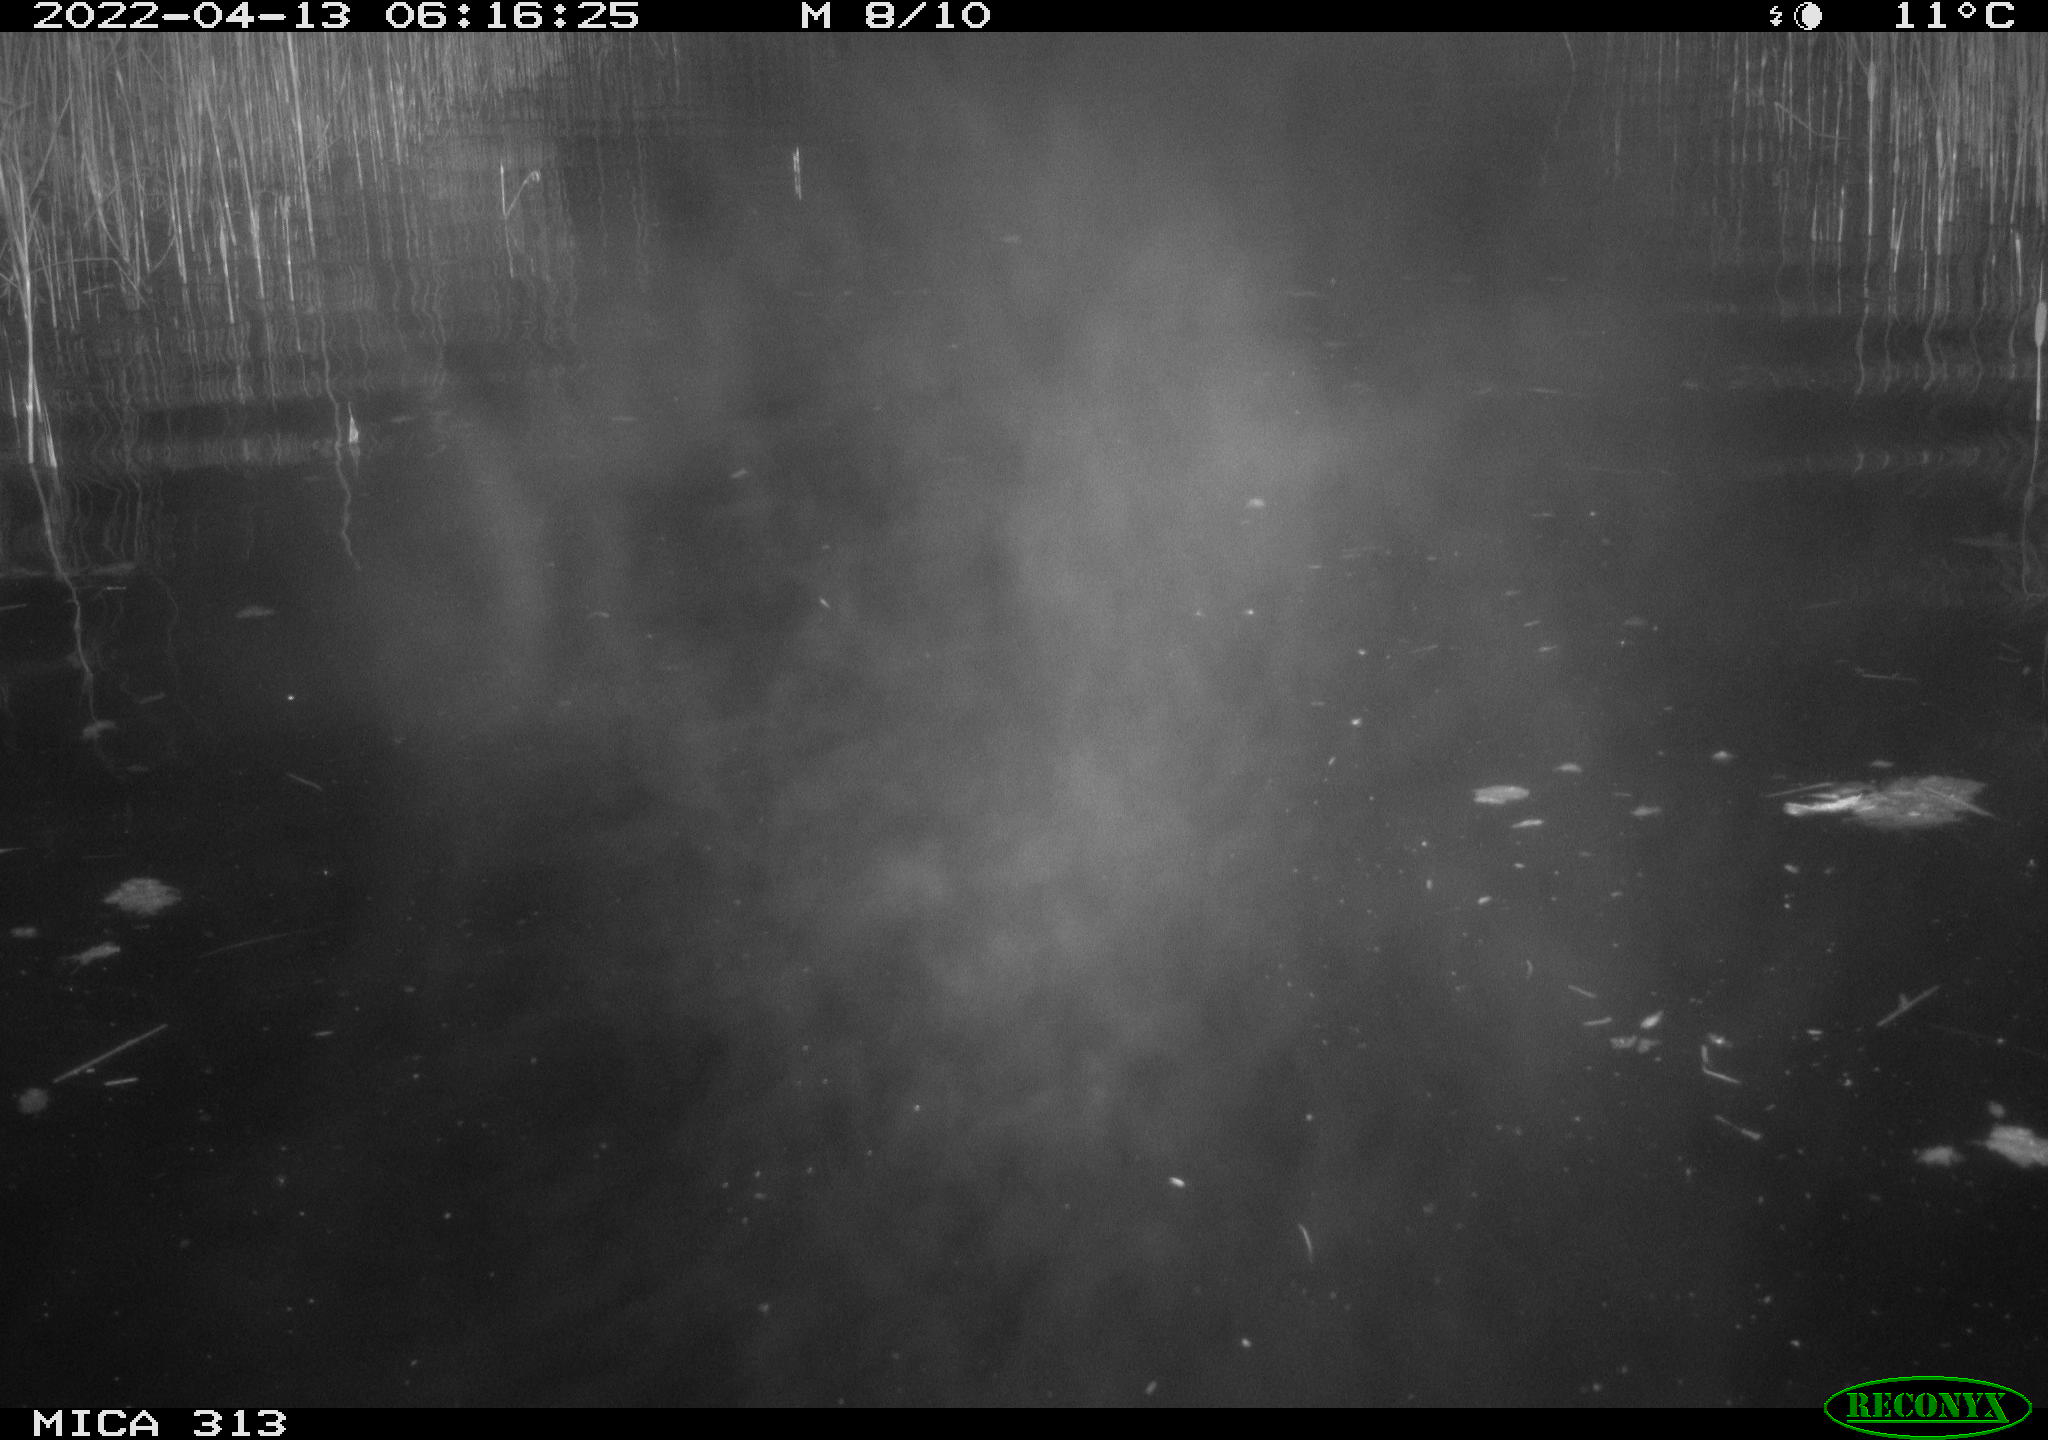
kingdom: Animalia
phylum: Chordata
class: Aves
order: Anseriformes
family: Anatidae
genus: Anas
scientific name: Anas platyrhynchos
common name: Mallard
